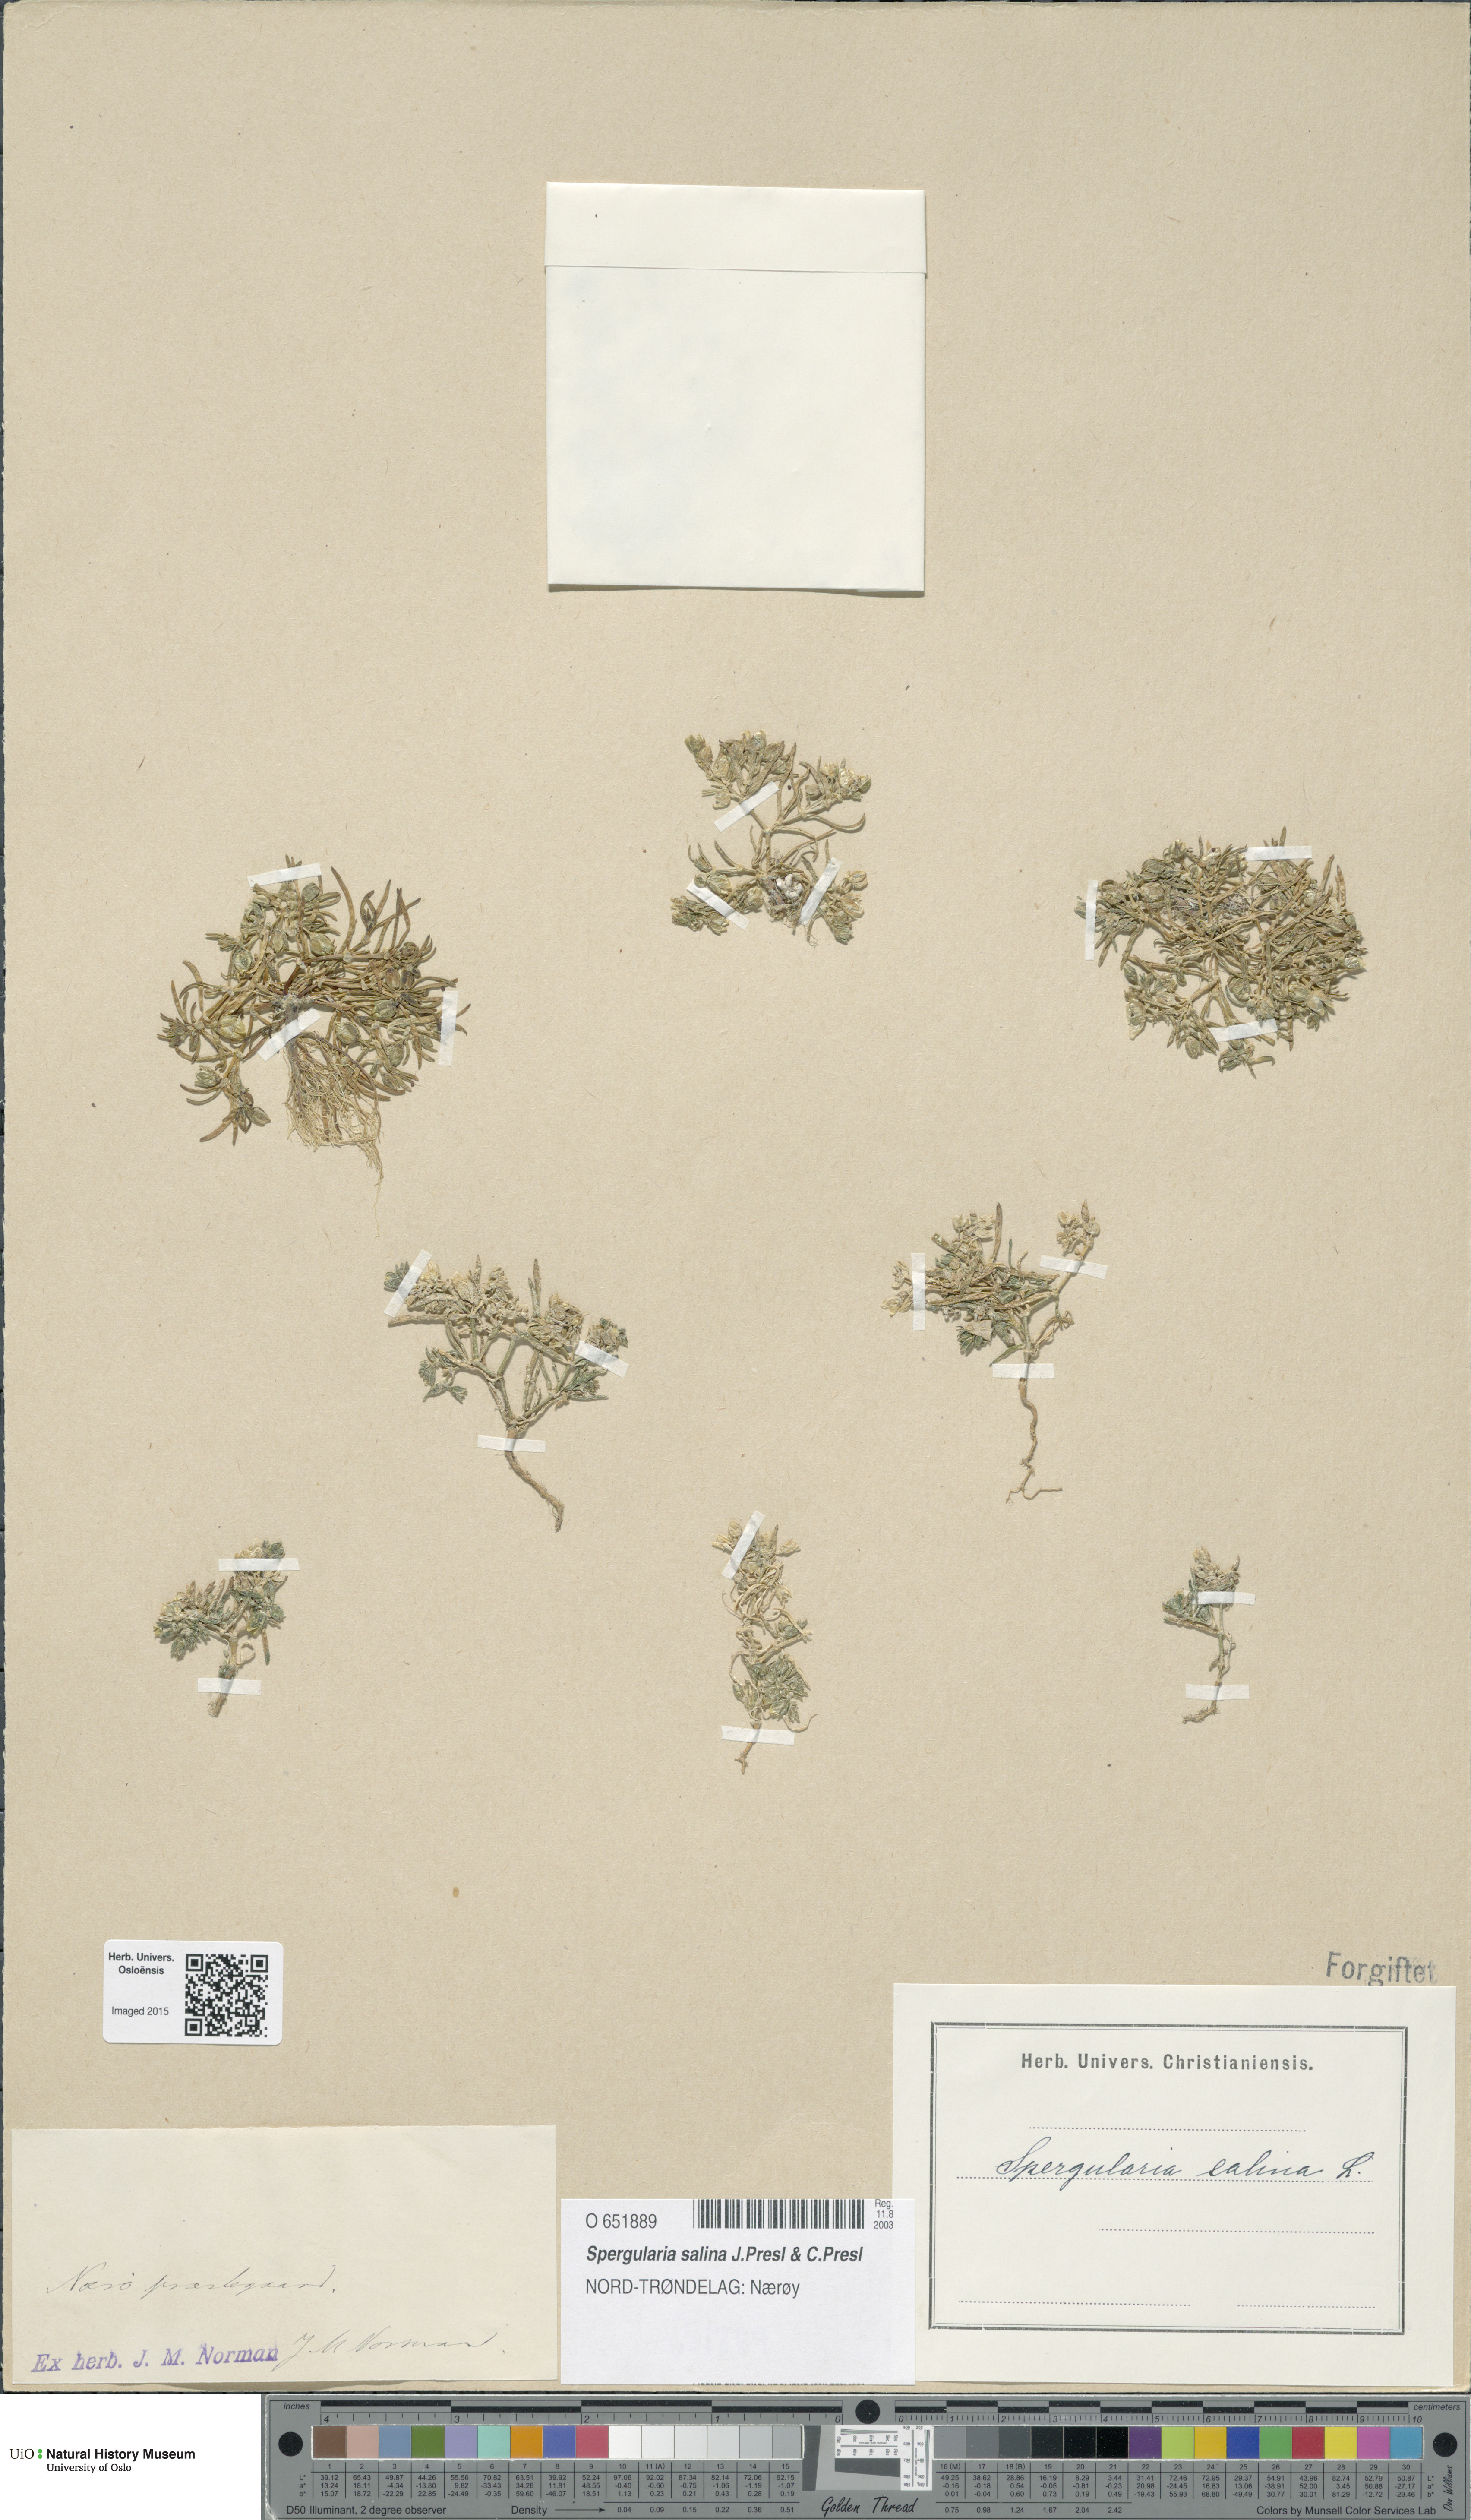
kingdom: Plantae
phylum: Tracheophyta
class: Magnoliopsida
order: Caryophyllales
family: Caryophyllaceae
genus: Spergularia
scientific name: Spergularia marina
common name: Lesser sea-spurrey
